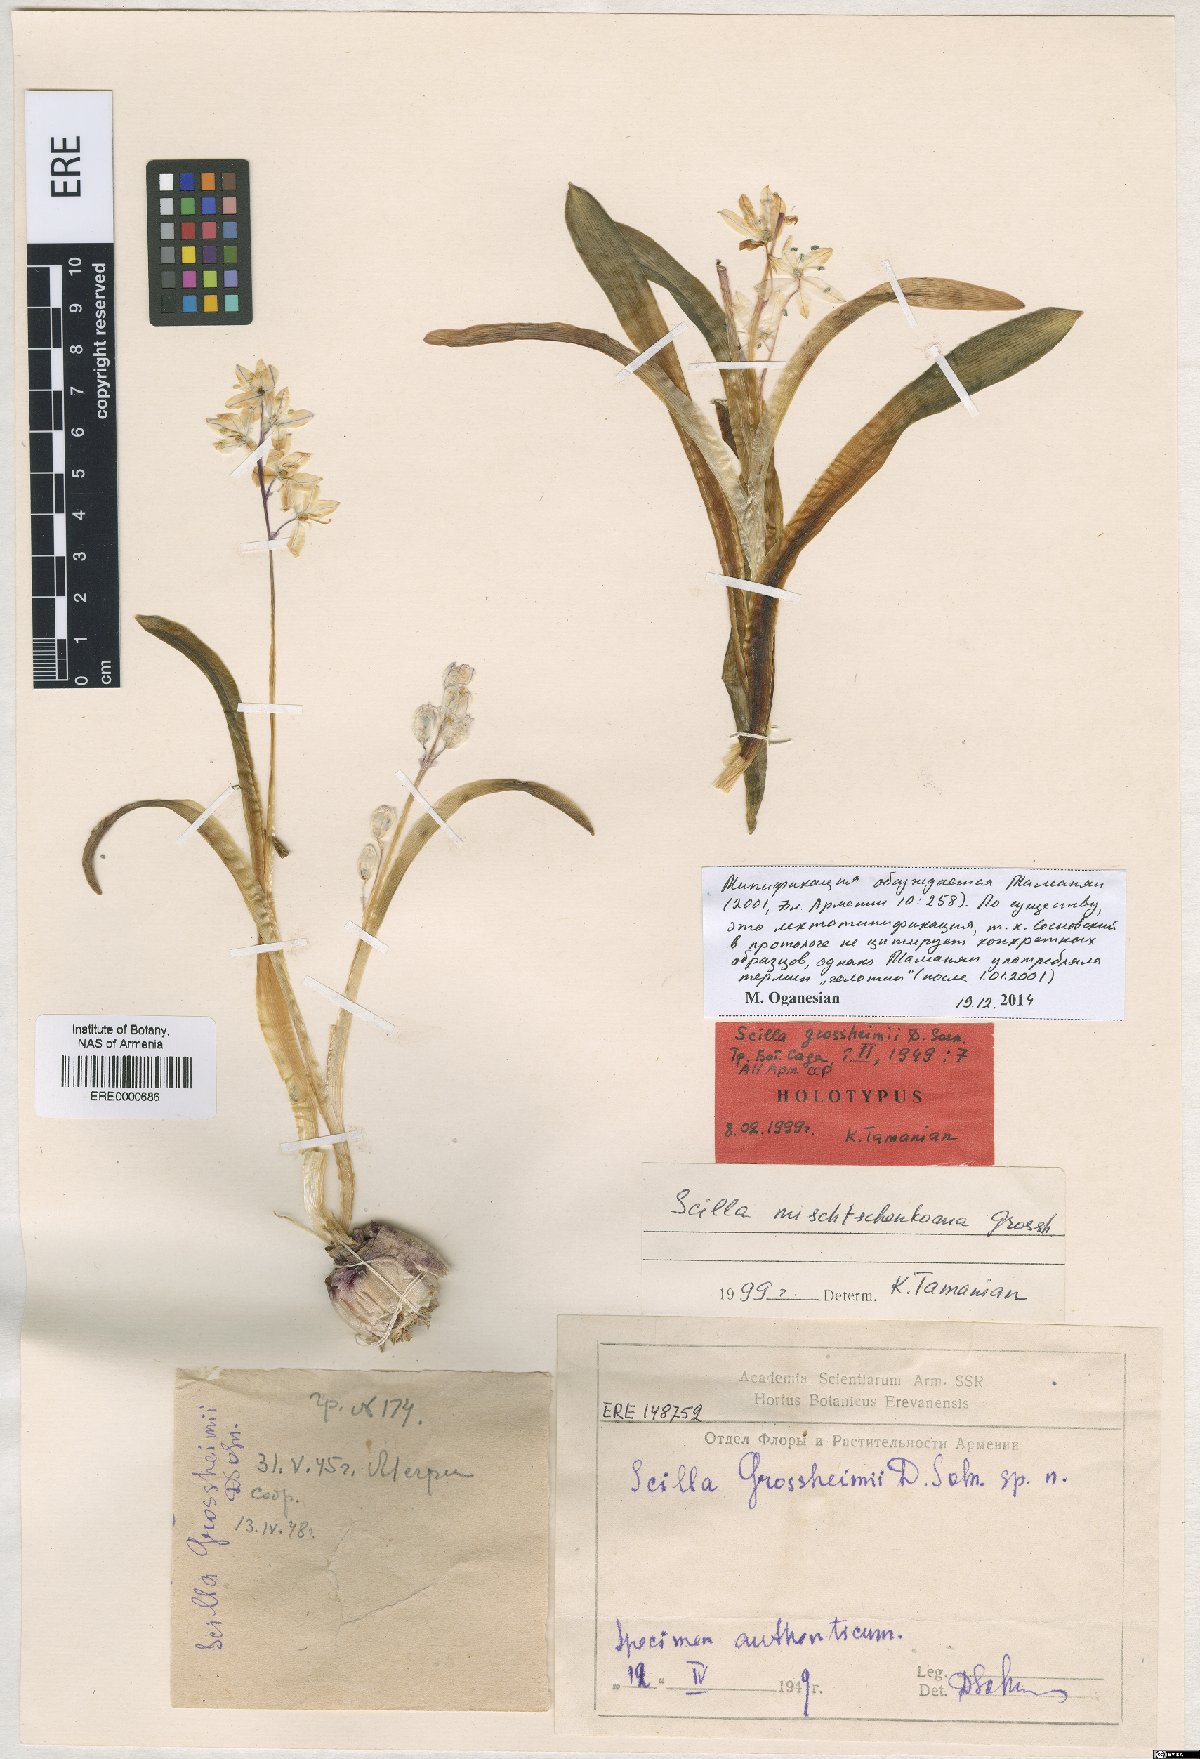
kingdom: Plantae
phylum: Tracheophyta
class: Liliopsida
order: Asparagales
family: Asparagaceae
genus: Scilla
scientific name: Scilla mischtschenkoana
